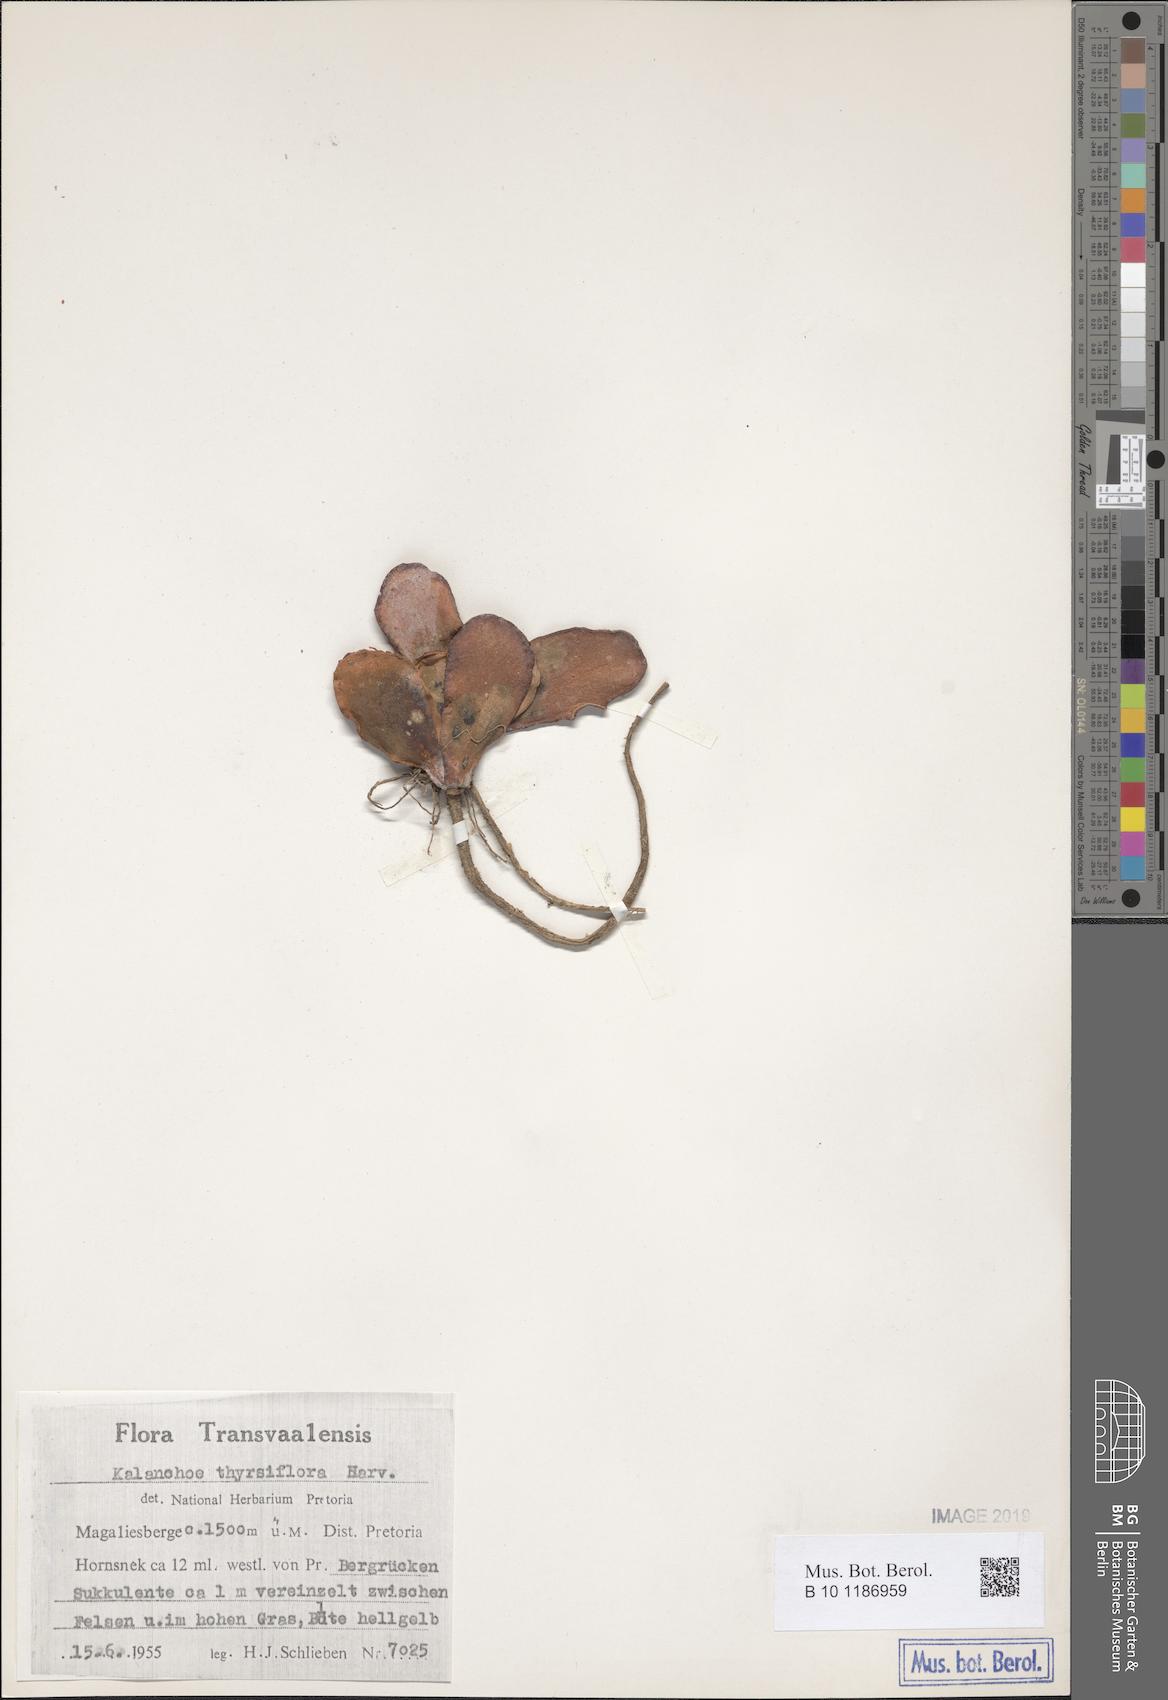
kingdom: Plantae
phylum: Tracheophyta
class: Magnoliopsida
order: Saxifragales
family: Crassulaceae
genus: Kalanchoe
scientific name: Kalanchoe thyrsiflora
